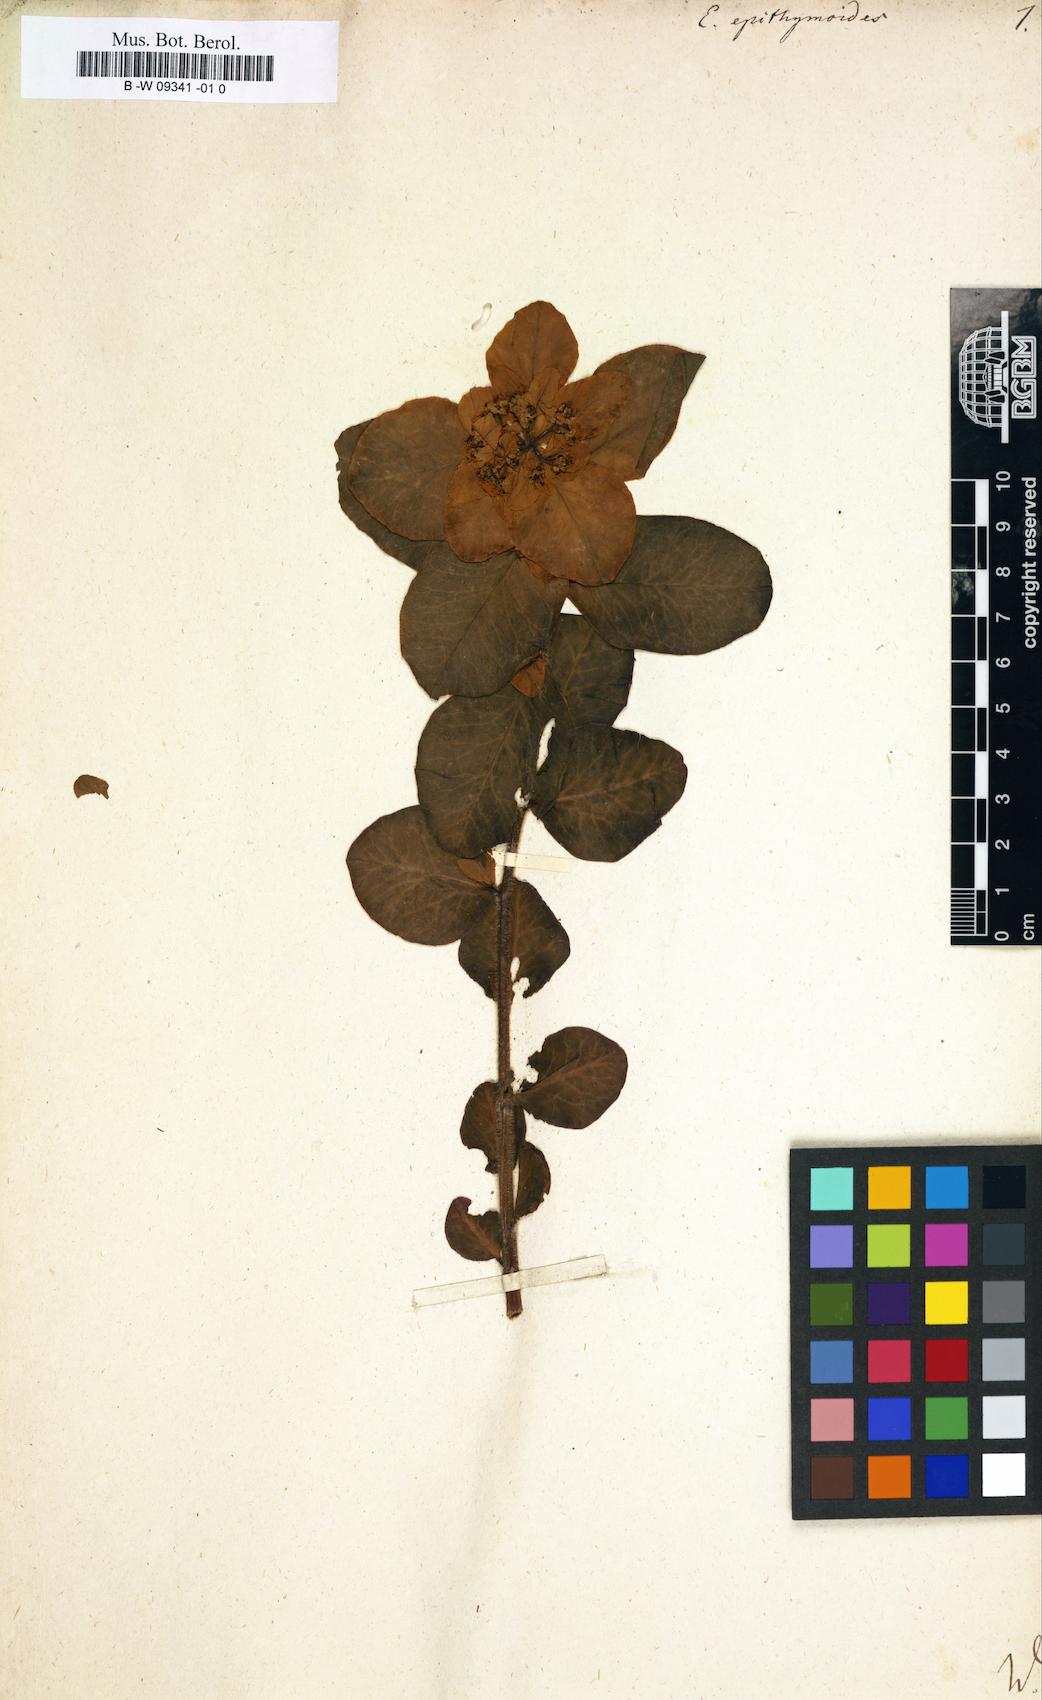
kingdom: Plantae
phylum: Tracheophyta
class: Magnoliopsida
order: Malpighiales
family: Euphorbiaceae
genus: Euphorbia
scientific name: Euphorbia epithymoides
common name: Cushion spurge
